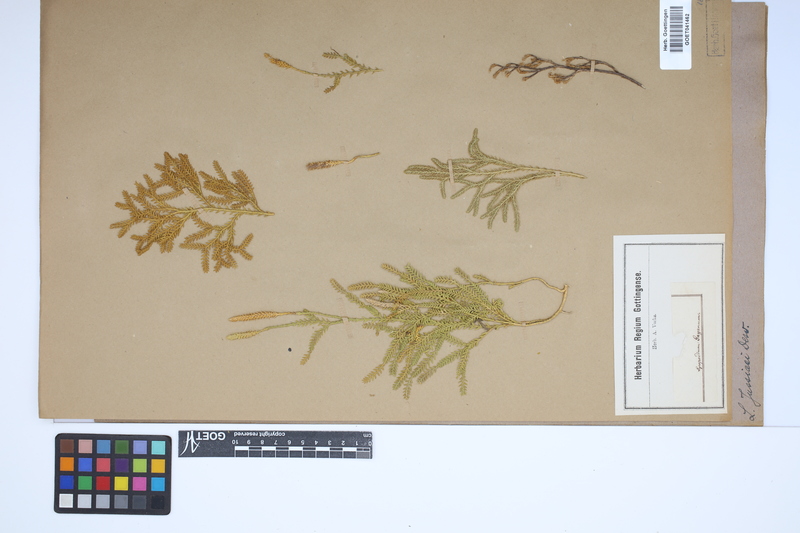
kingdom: Plantae
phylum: Tracheophyta
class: Lycopodiopsida
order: Lycopodiales
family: Lycopodiaceae
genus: Diphasium
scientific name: Diphasium jussiaei
